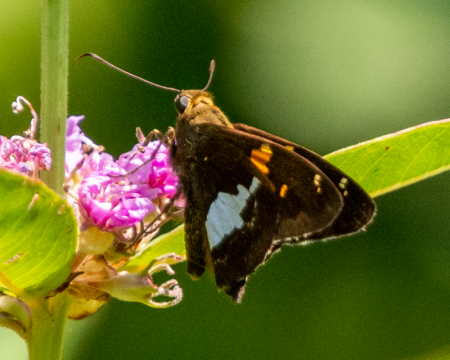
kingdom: Animalia
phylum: Arthropoda
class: Insecta
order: Lepidoptera
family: Hesperiidae
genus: Epargyreus
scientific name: Epargyreus clarus
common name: Silver-spotted Skipper
